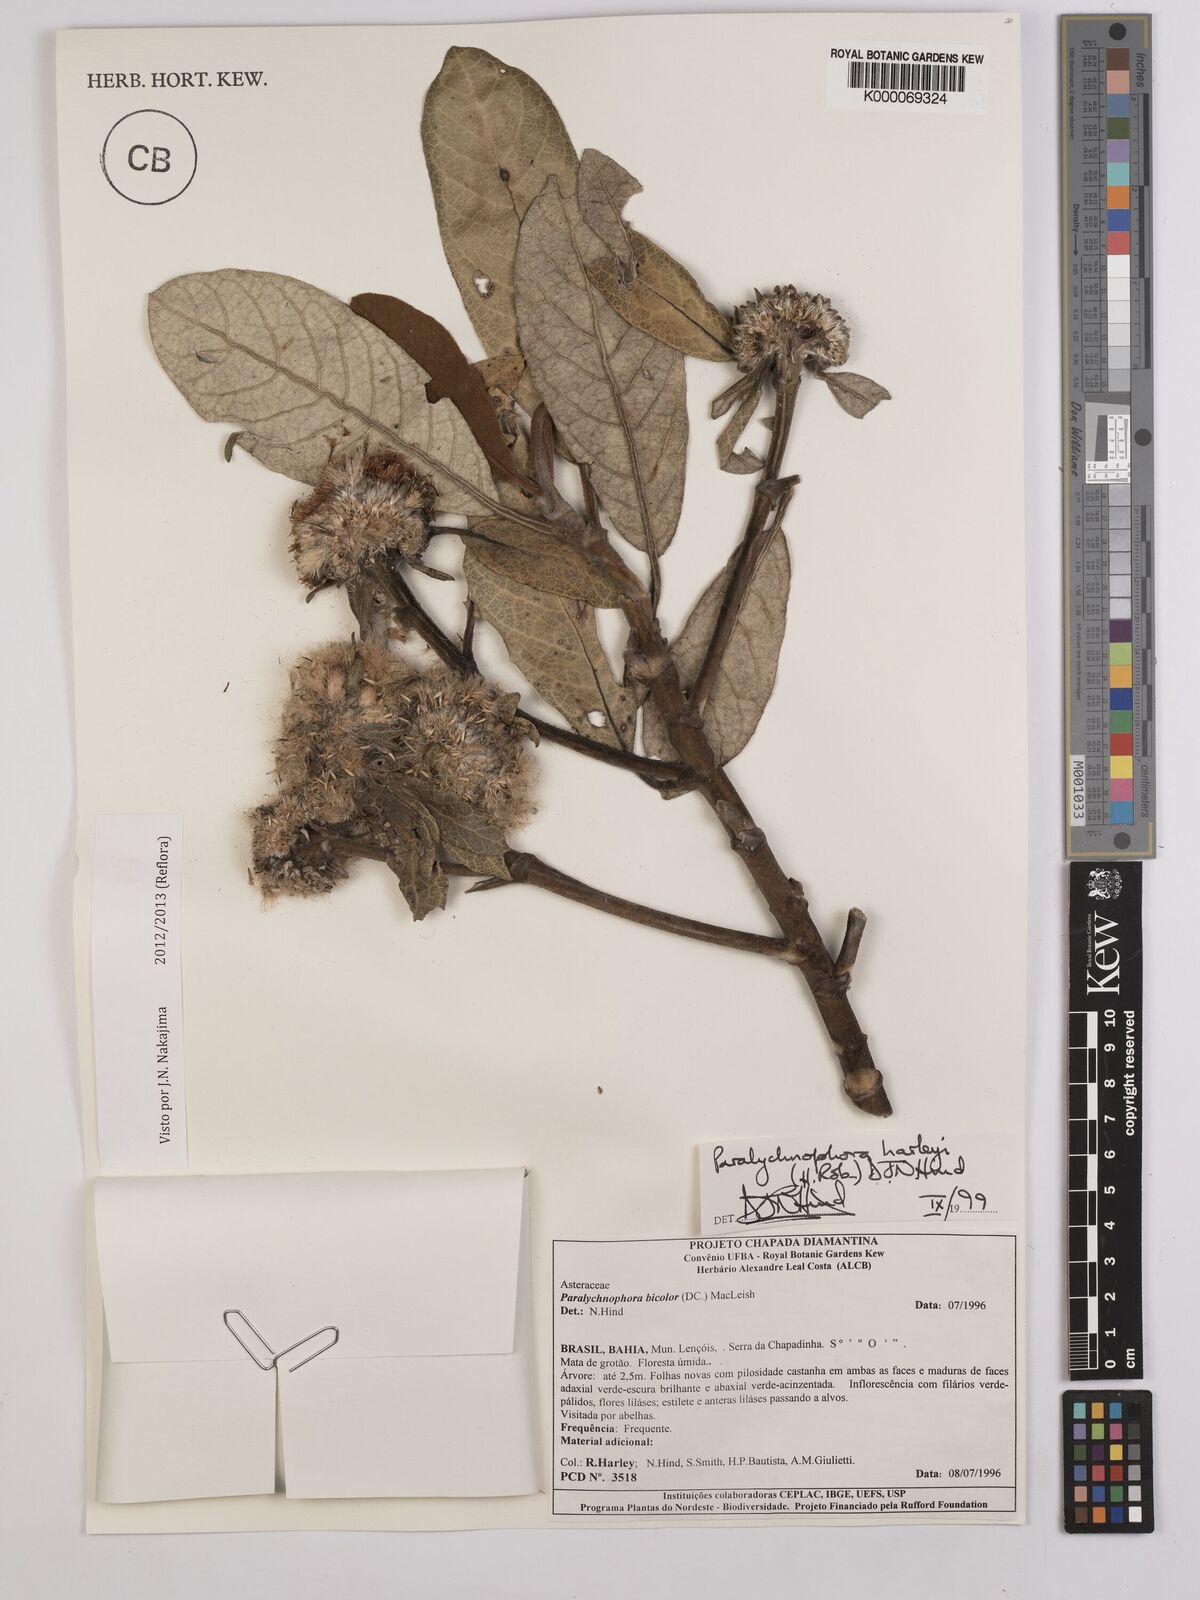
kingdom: Plantae
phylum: Tracheophyta
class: Magnoliopsida
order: Asterales
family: Asteraceae
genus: Paralychnophora
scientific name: Paralychnophora harleyi
